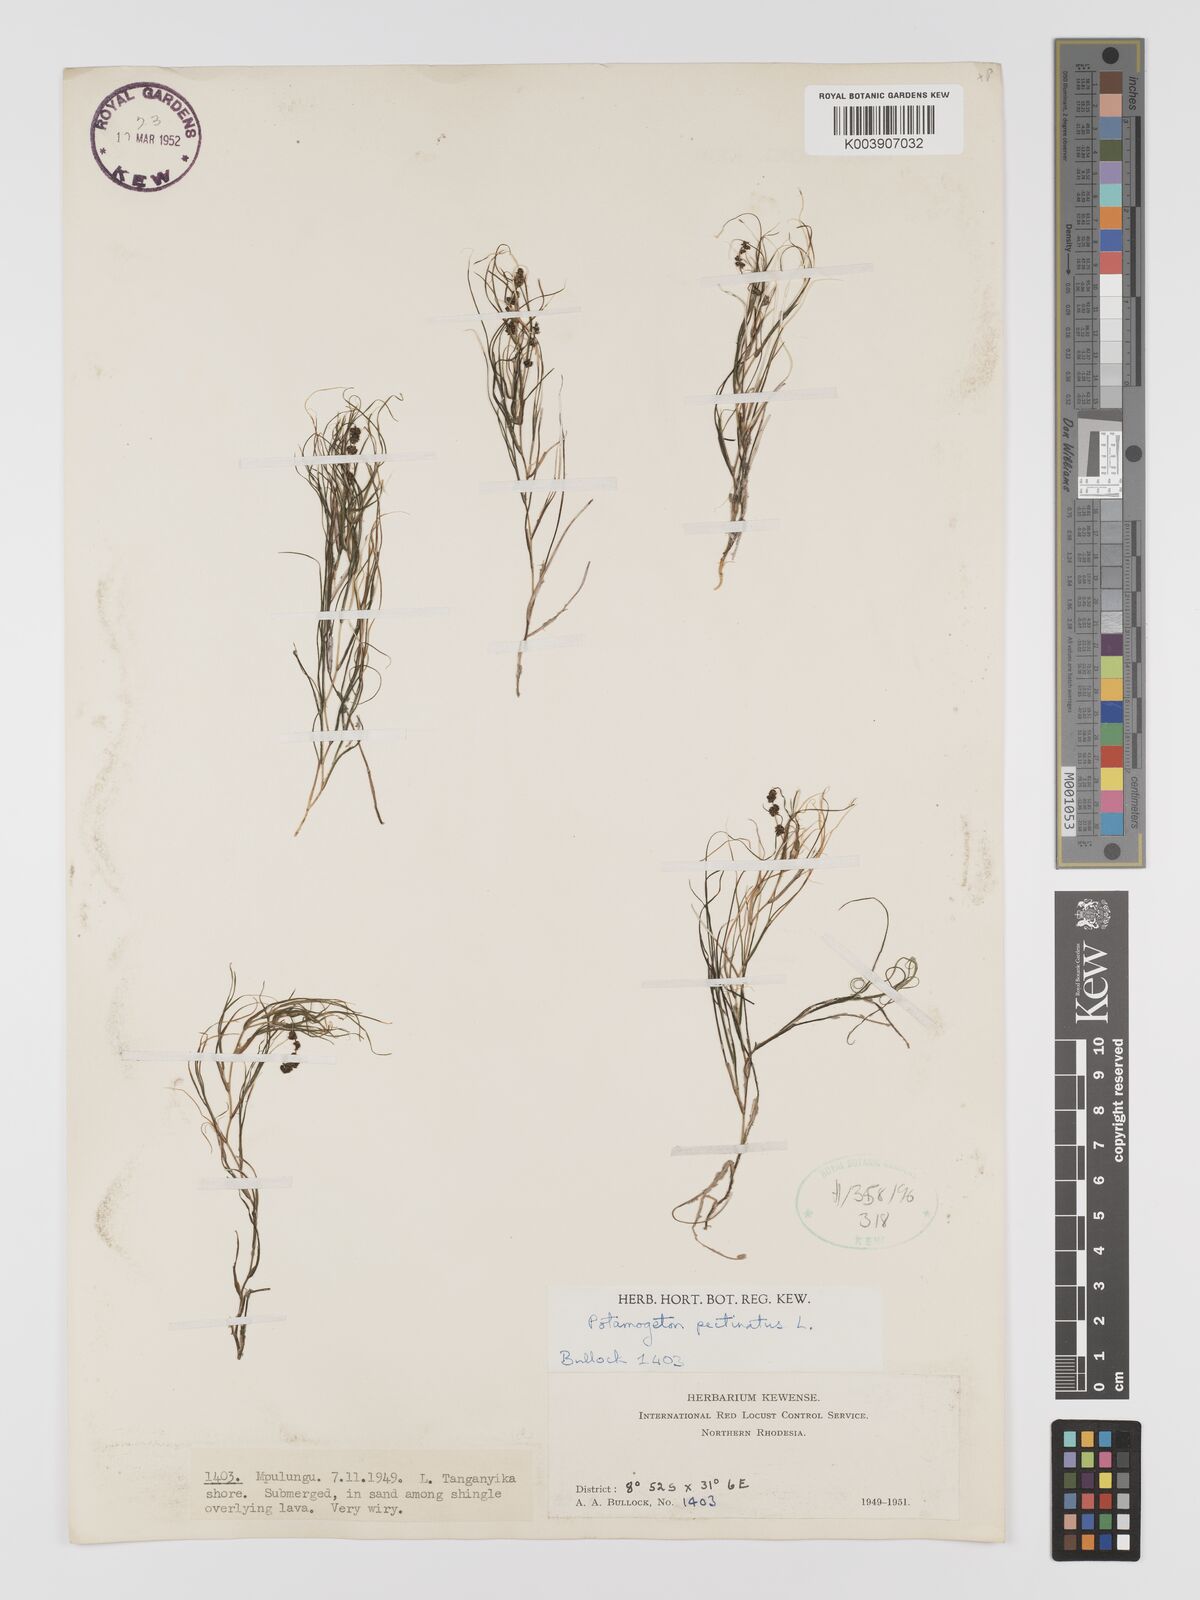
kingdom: Plantae
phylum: Tracheophyta
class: Liliopsida
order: Alismatales
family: Potamogetonaceae
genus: Stuckenia
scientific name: Stuckenia pectinata
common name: Sago pondweed
